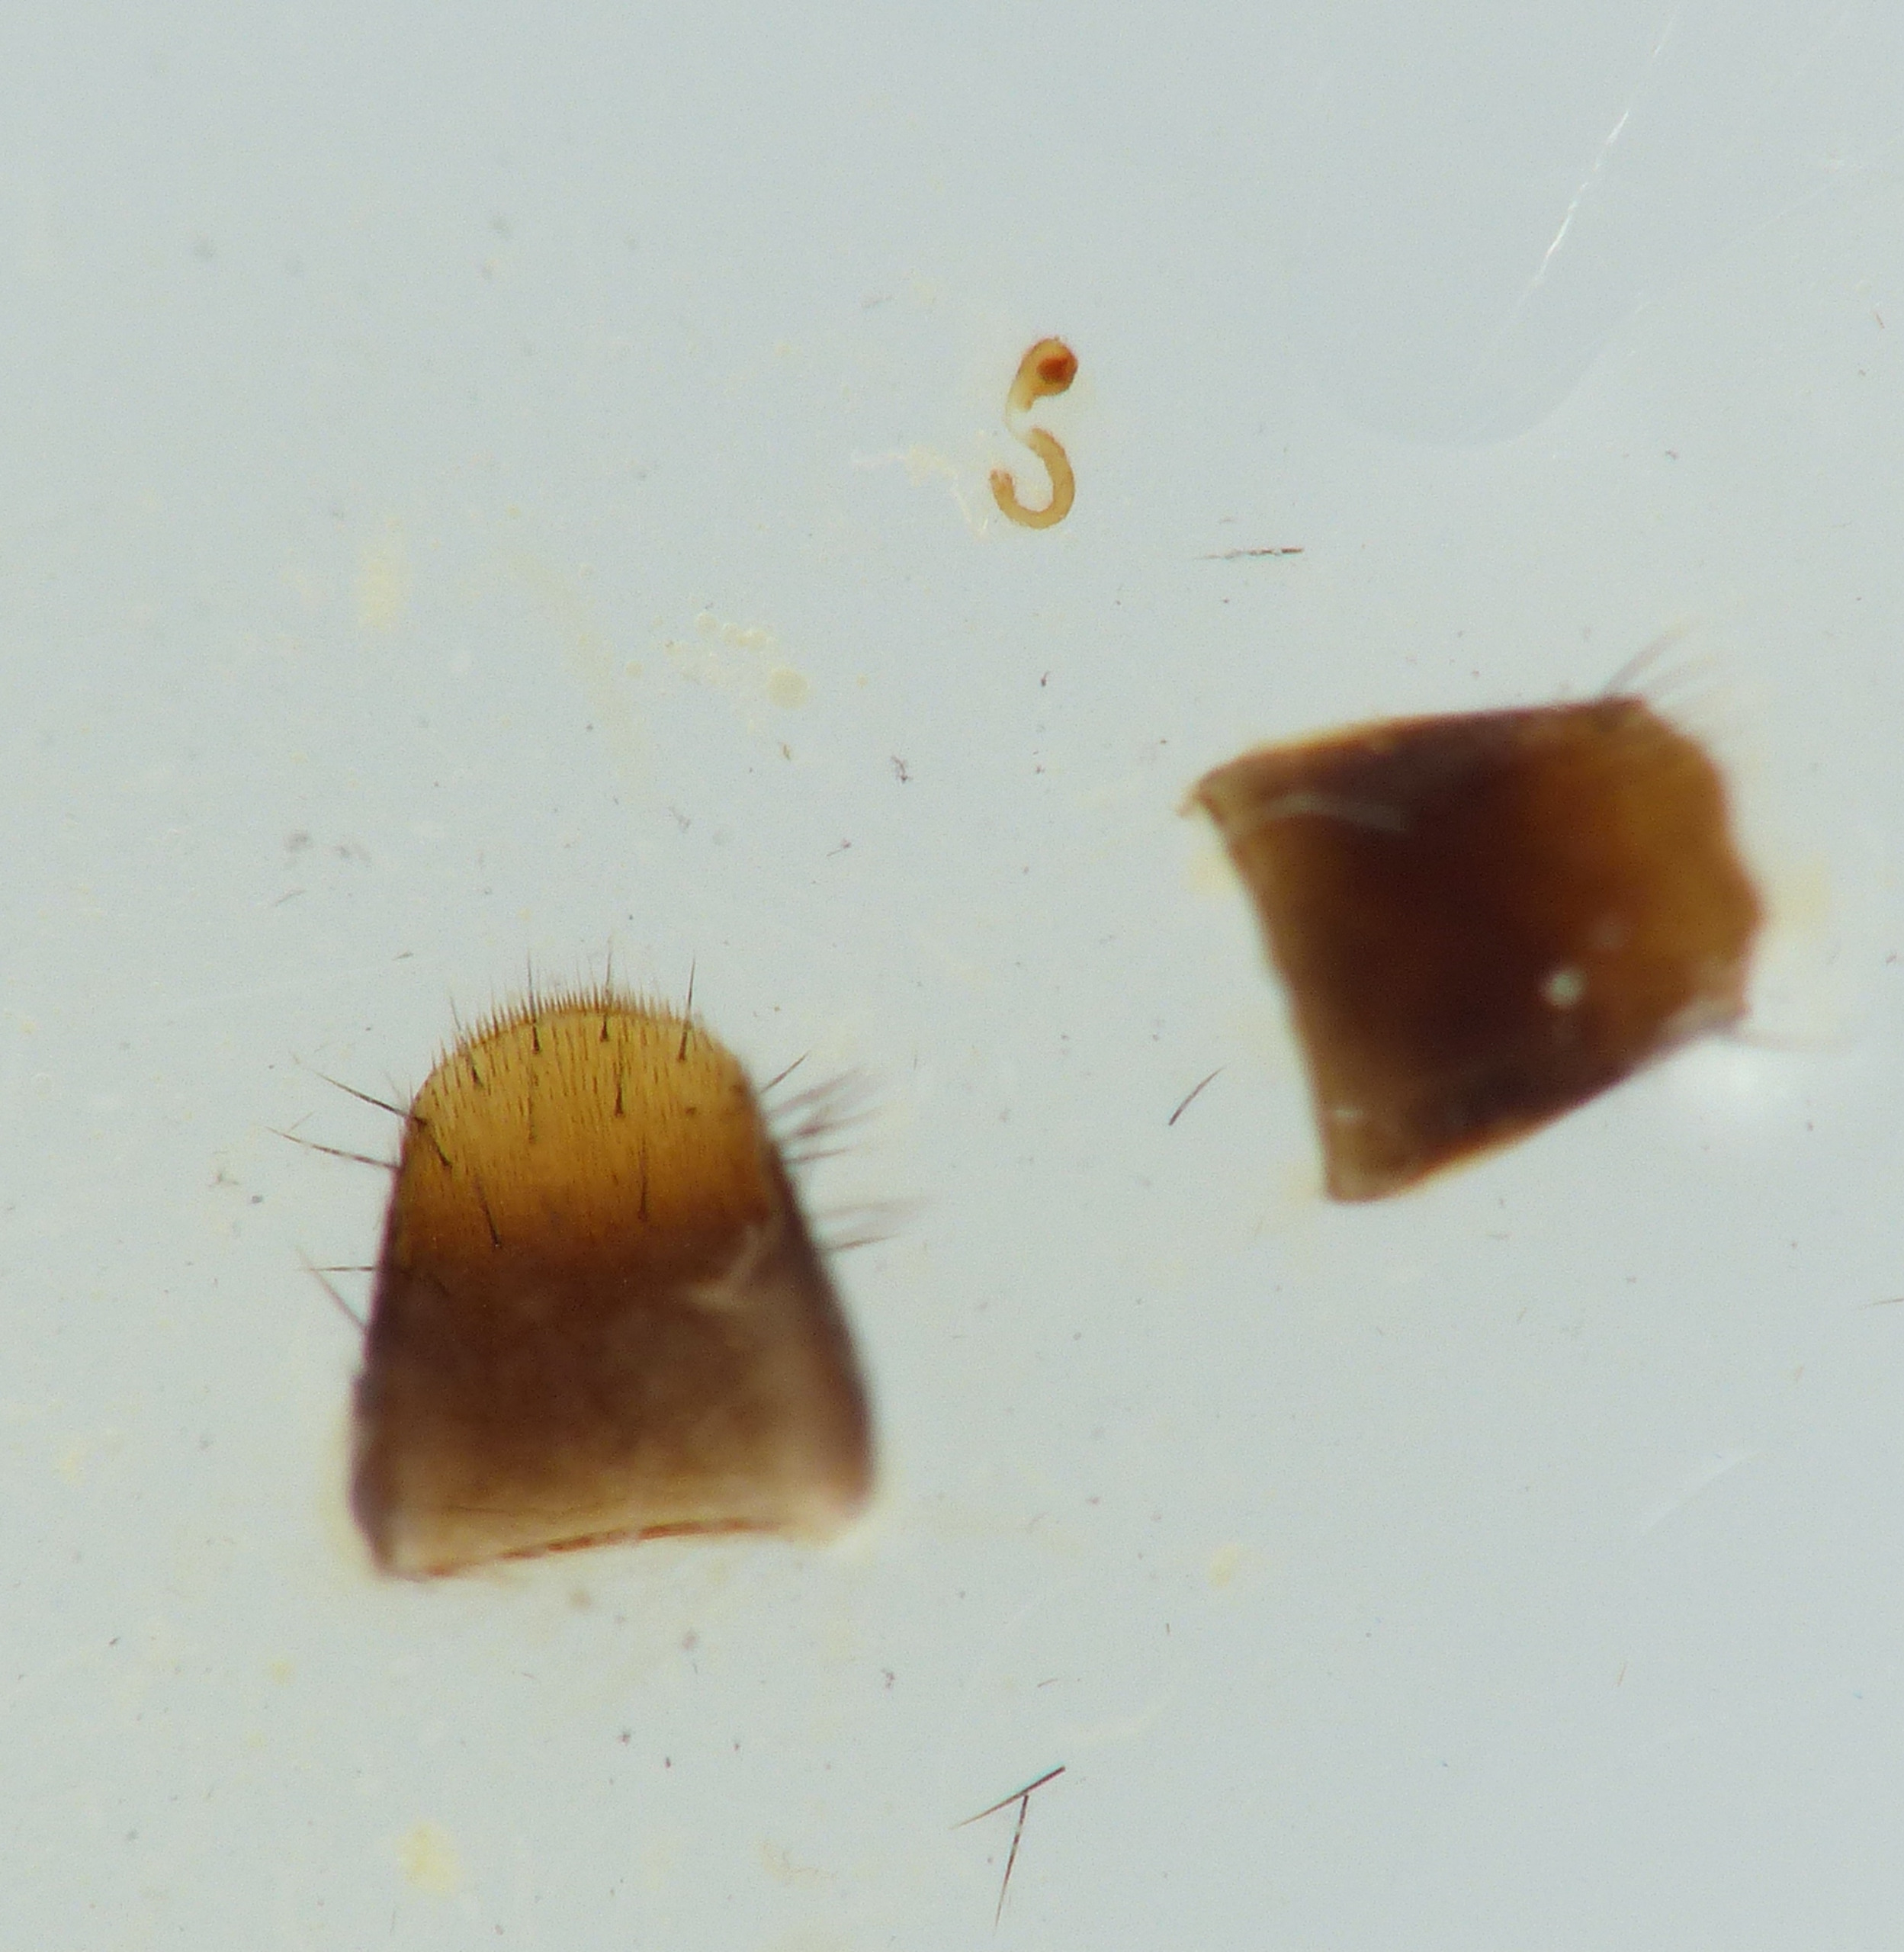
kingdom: Animalia
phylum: Arthropoda
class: Insecta
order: Coleoptera
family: Staphylinidae
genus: Oxypoda
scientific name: Oxypoda opaca
